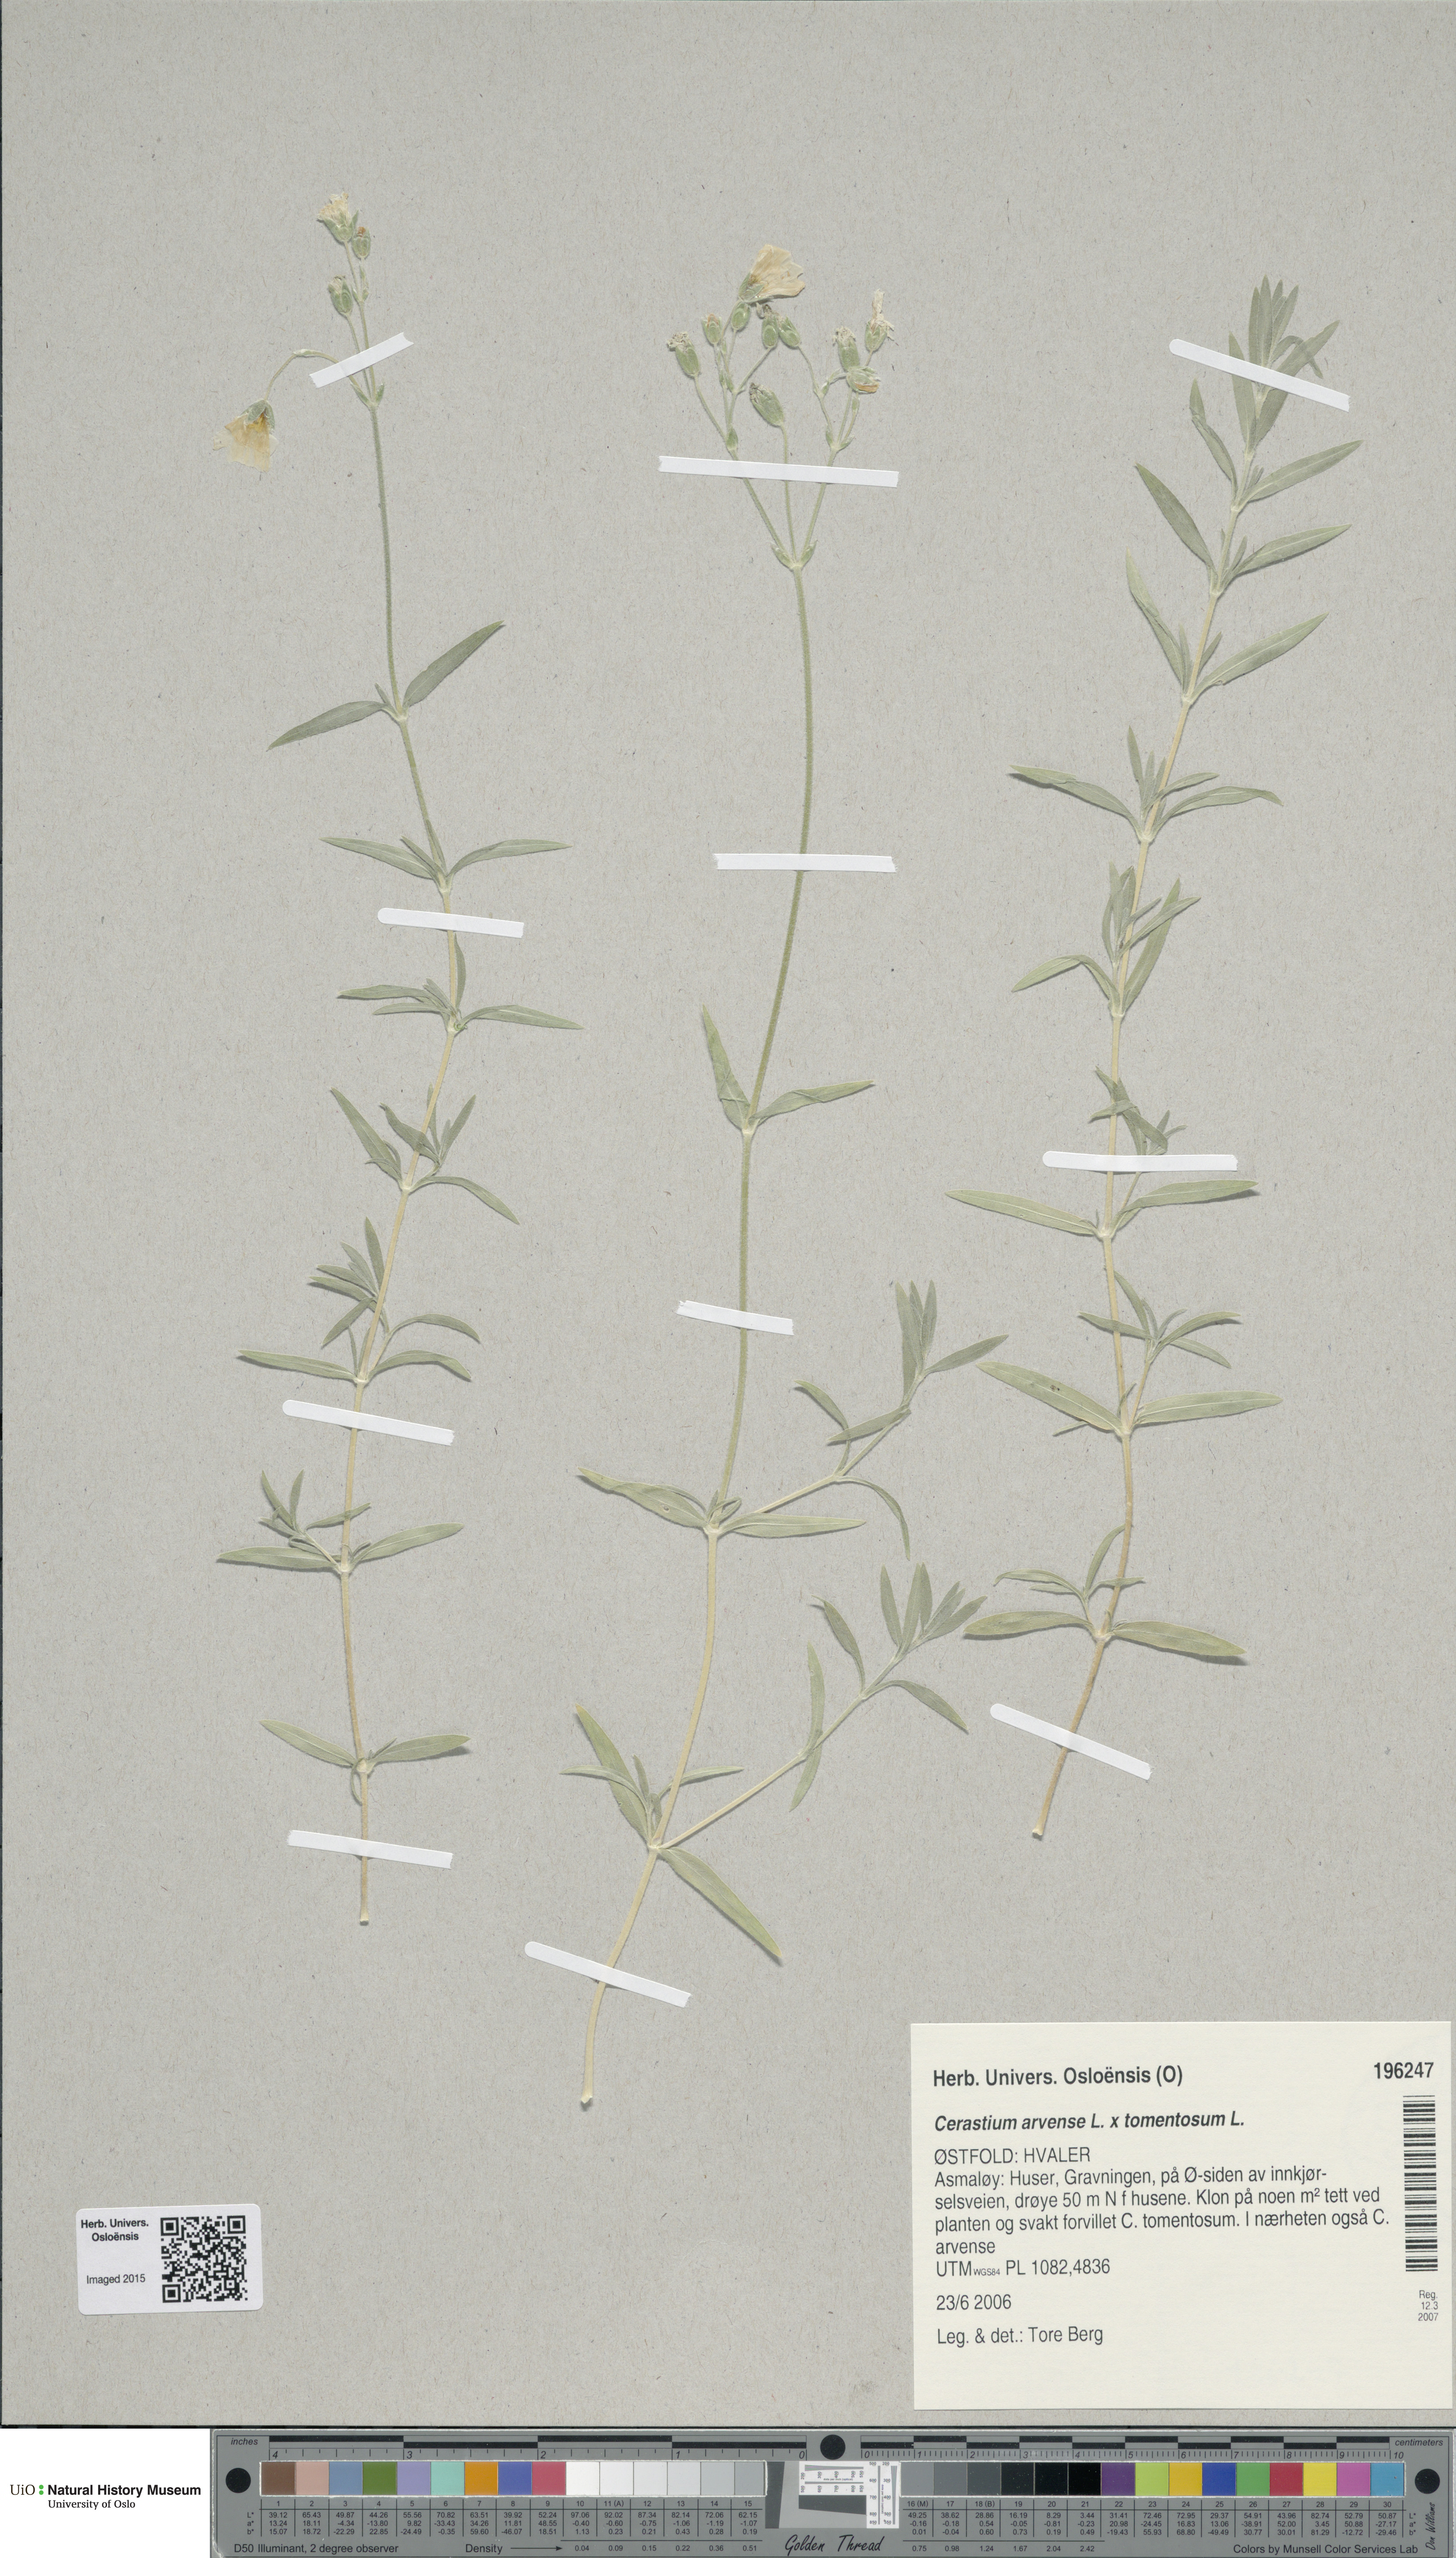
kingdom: Plantae
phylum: Tracheophyta
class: Magnoliopsida
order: Caryophyllales
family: Caryophyllaceae
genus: Cerastium
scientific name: Cerastium
